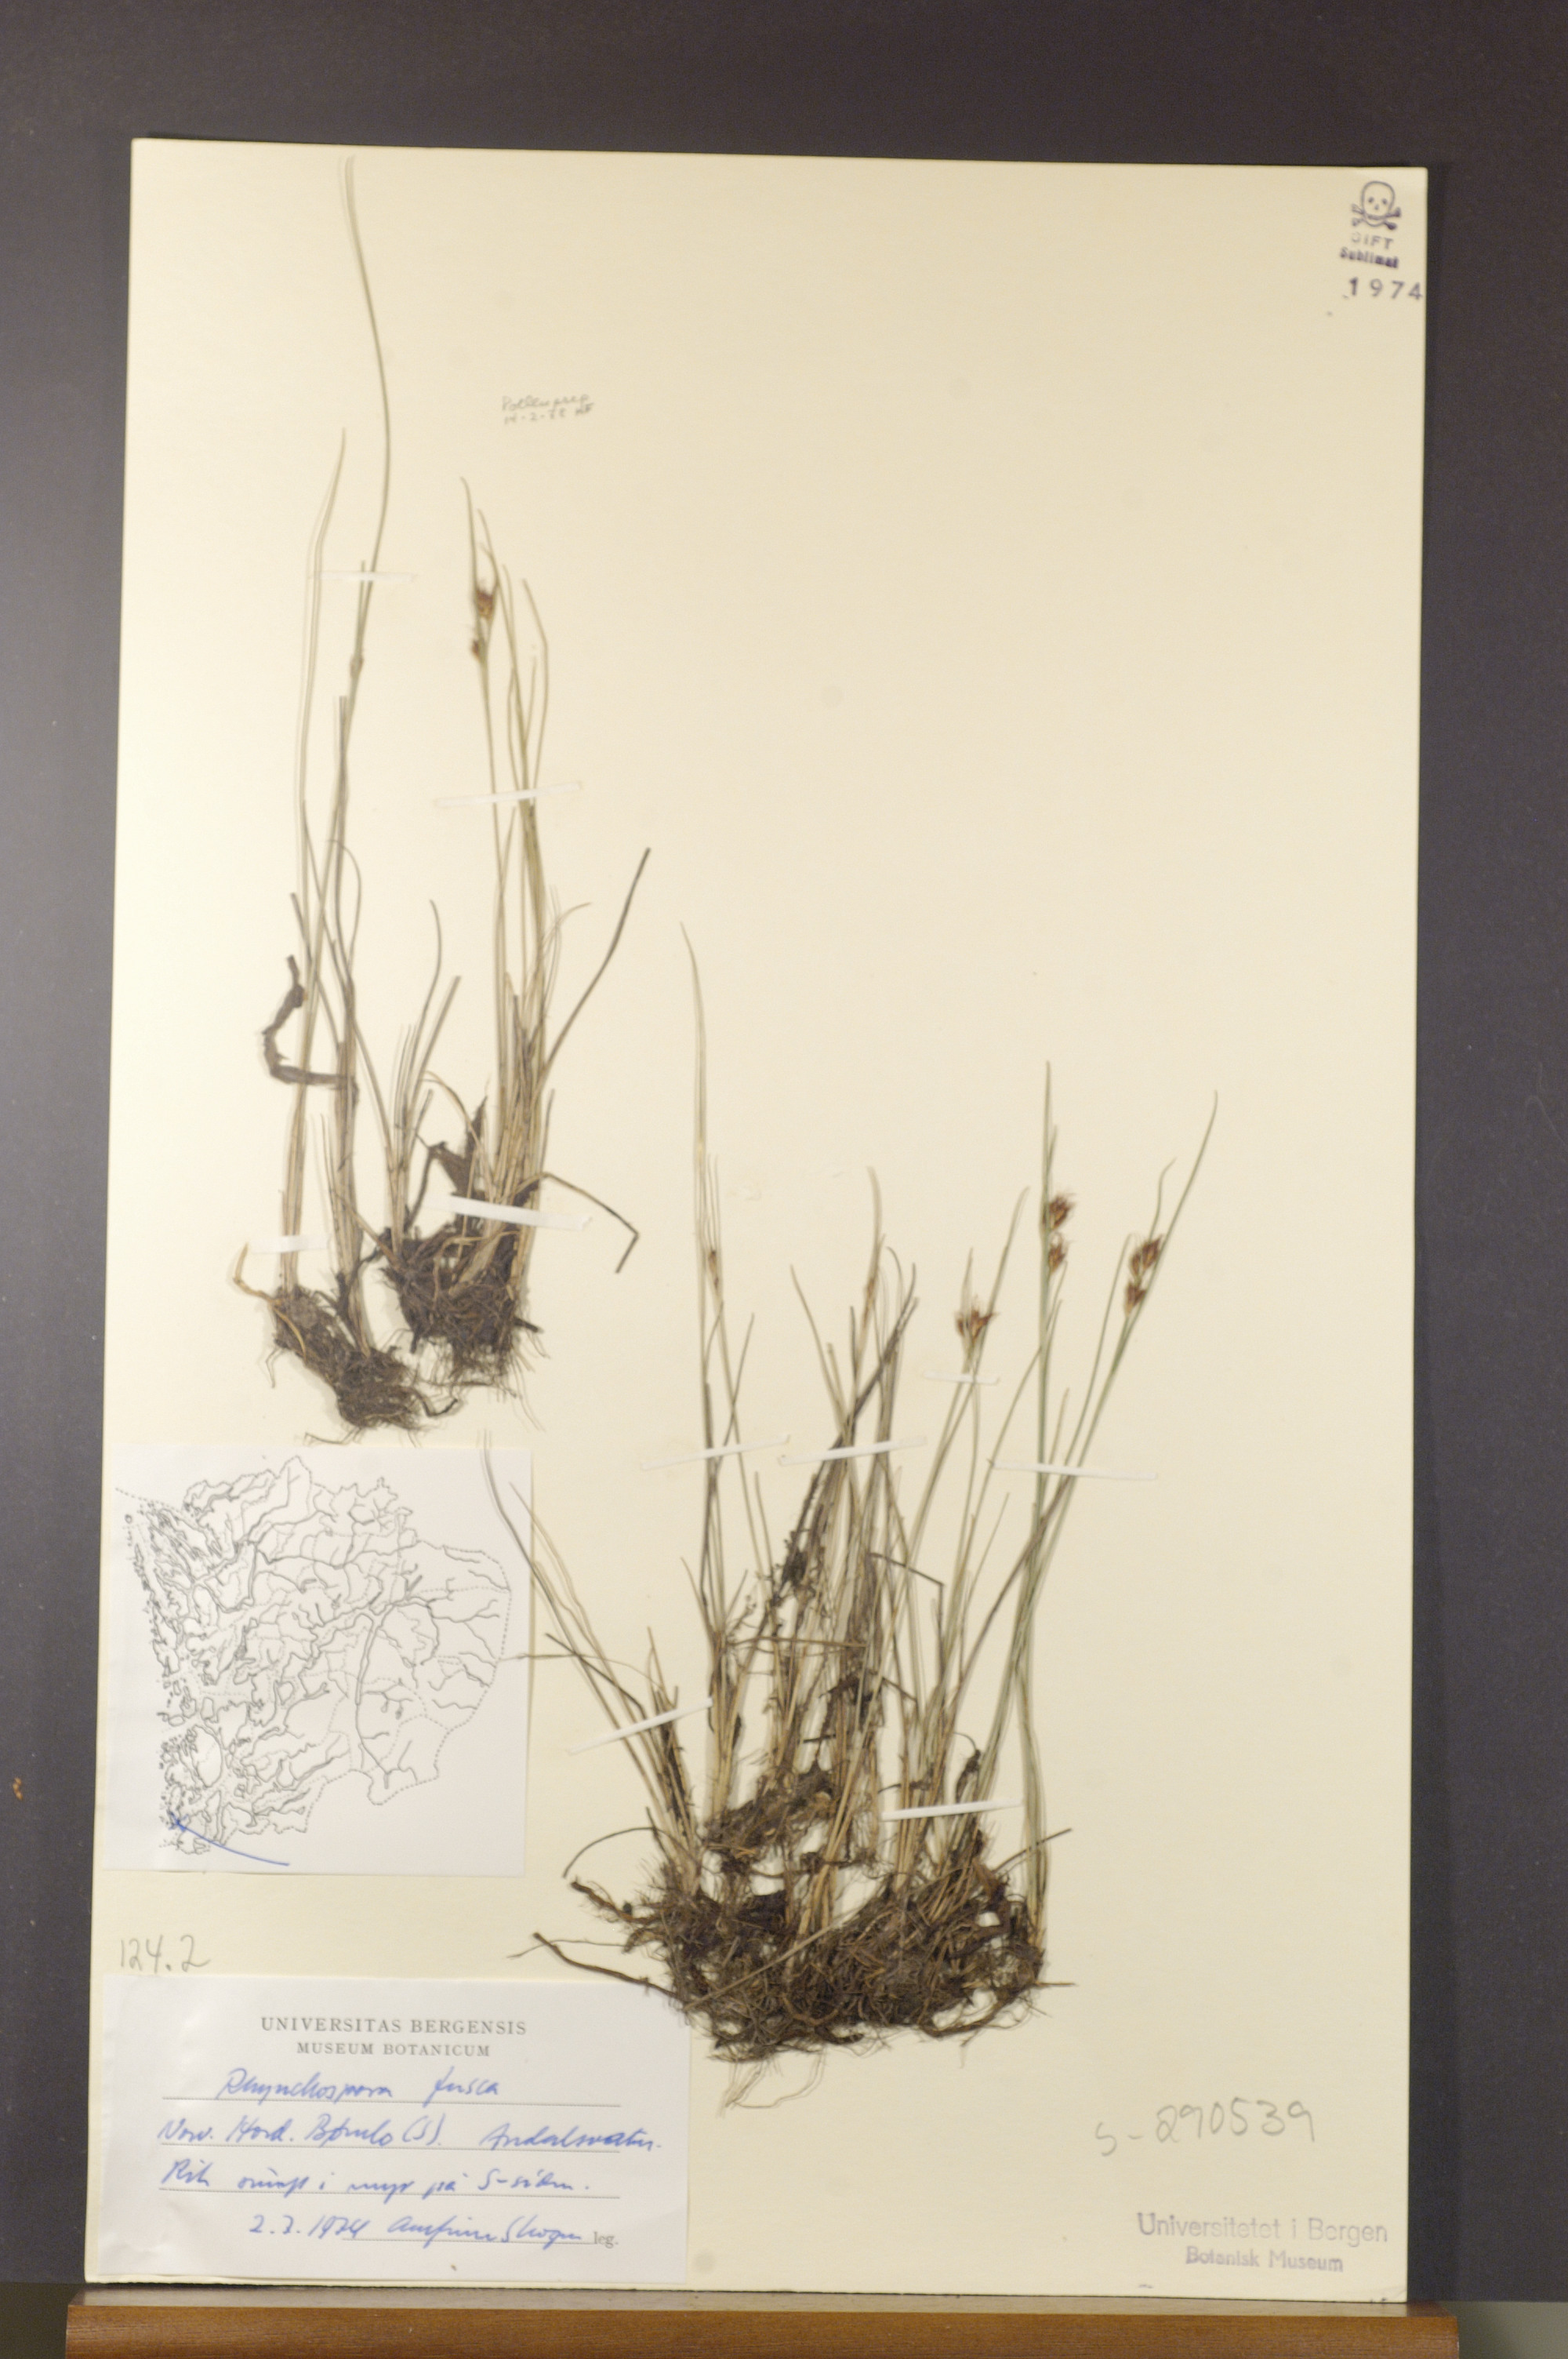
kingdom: Plantae
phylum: Tracheophyta
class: Liliopsida
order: Poales
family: Cyperaceae
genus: Rhynchospora
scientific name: Rhynchospora fusca
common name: Brown beak-sedge
